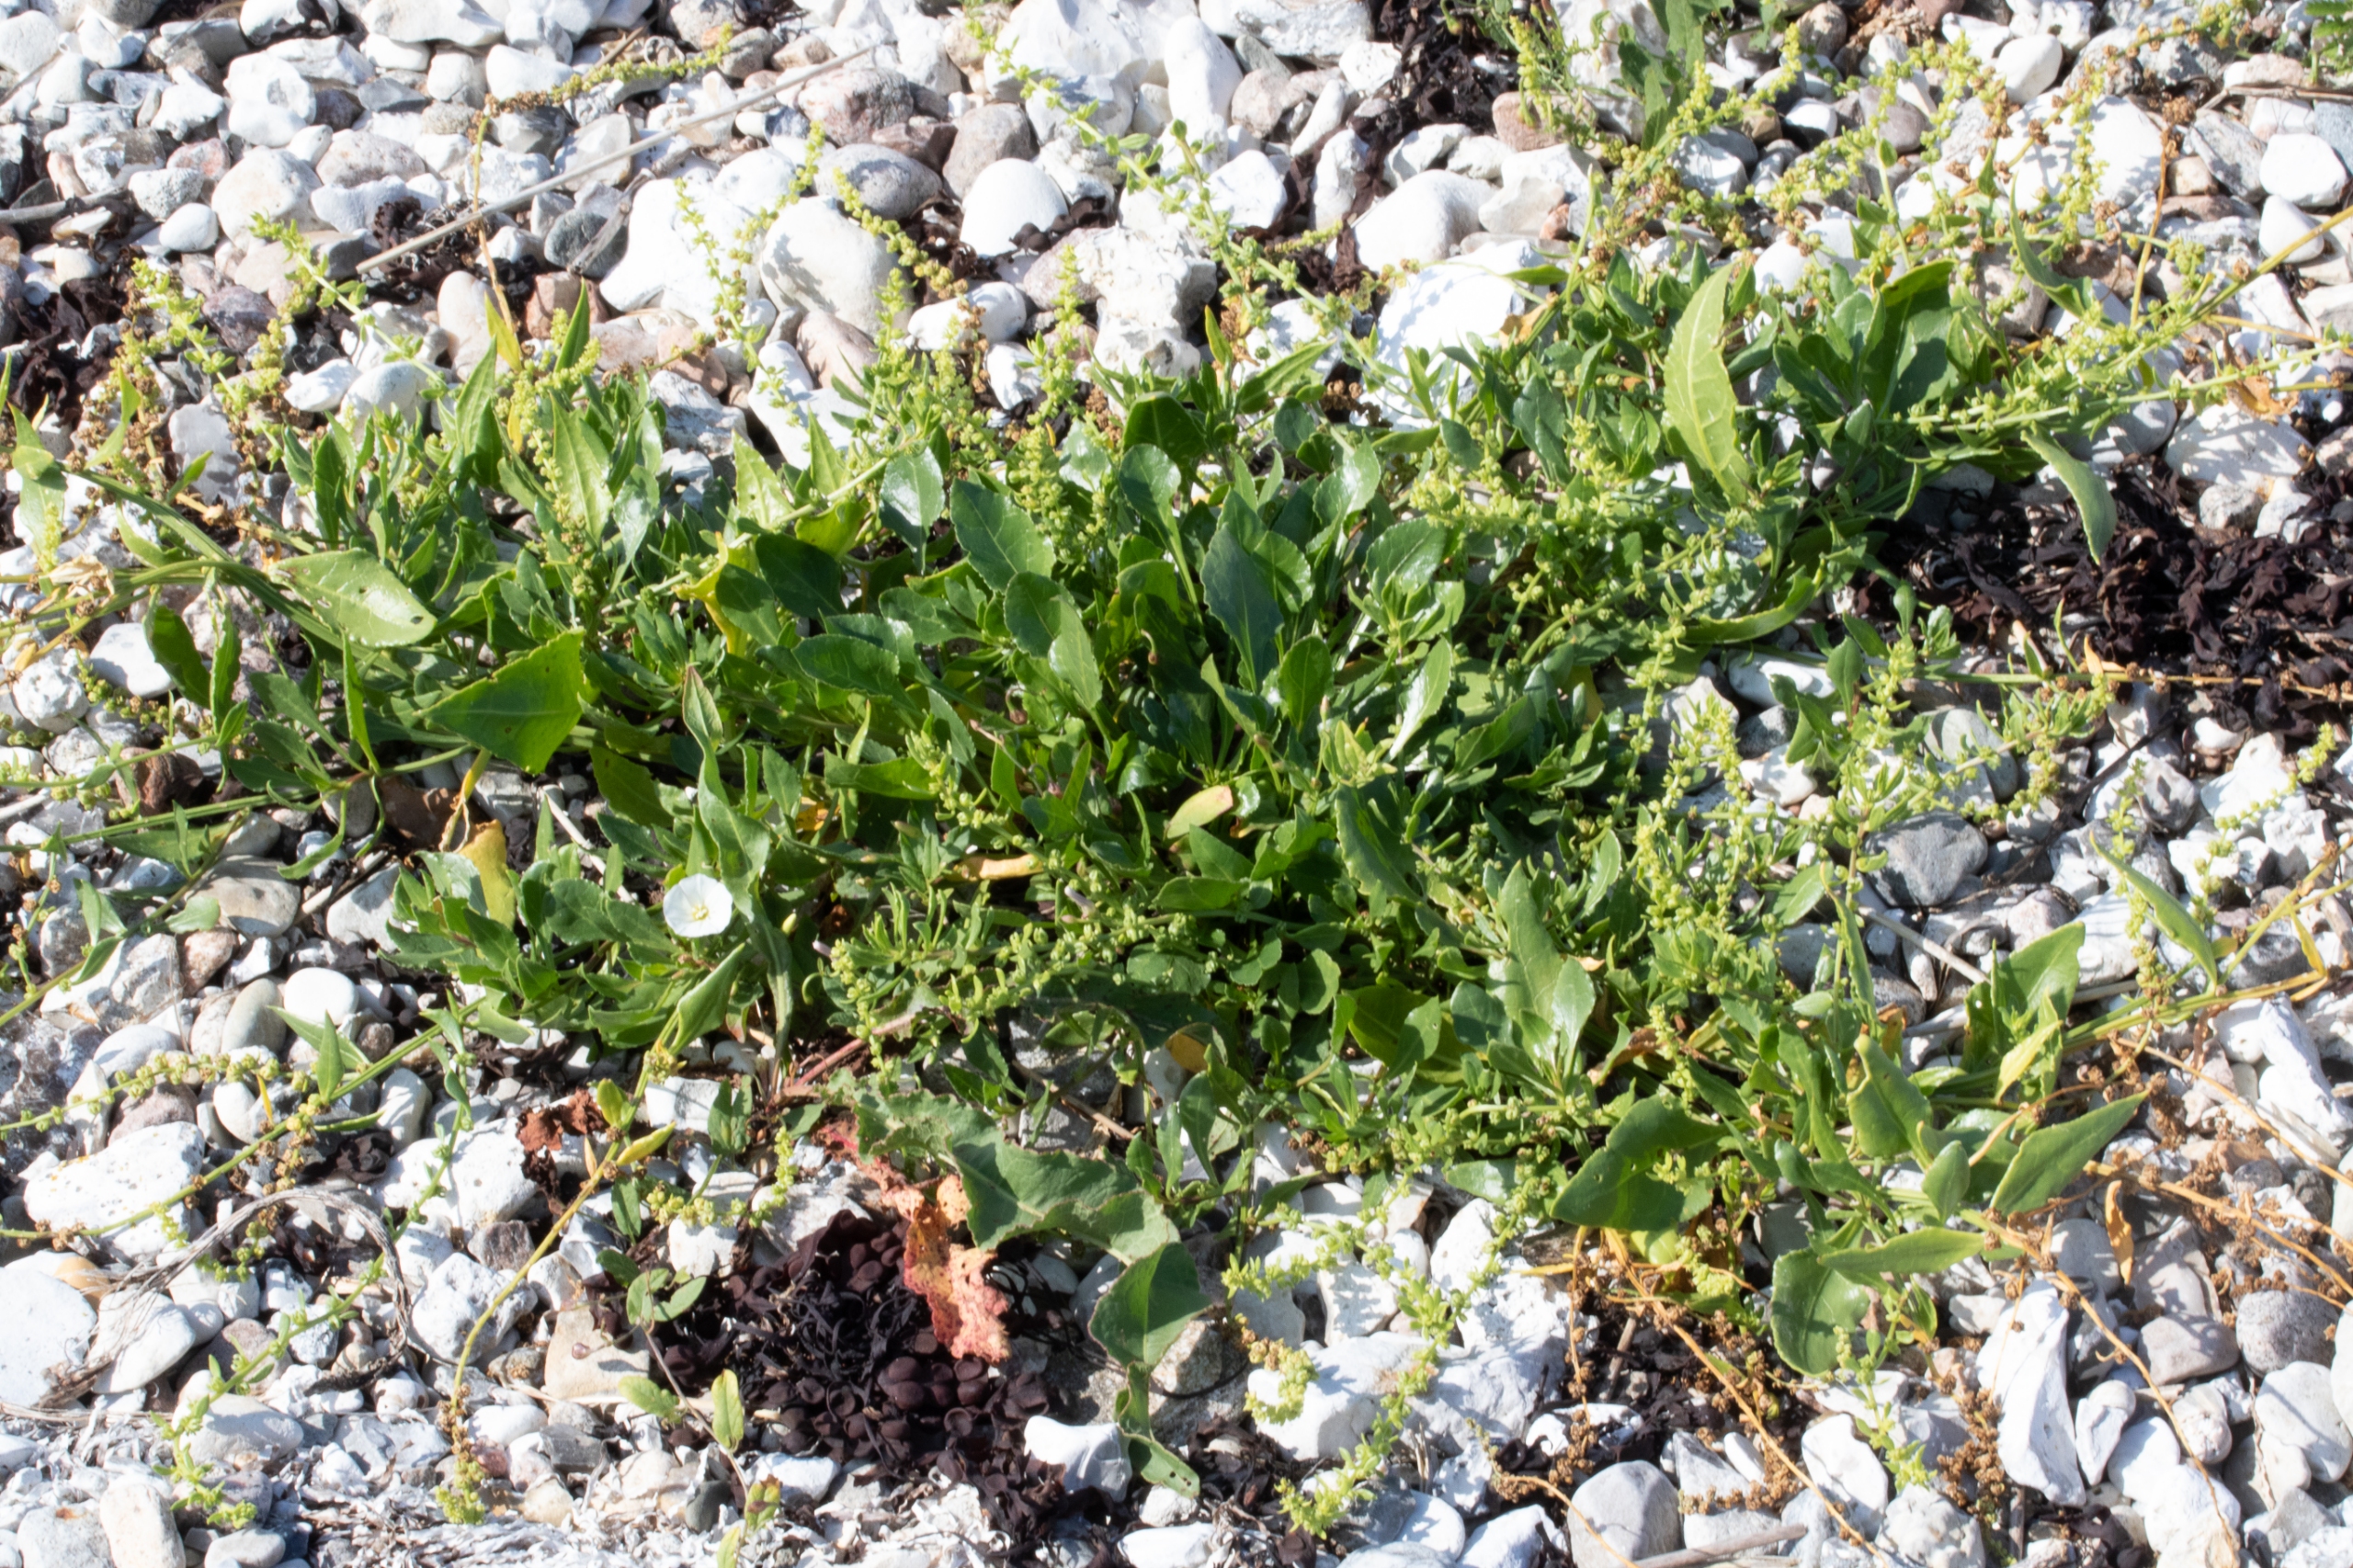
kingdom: Plantae
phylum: Tracheophyta
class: Magnoliopsida
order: Caryophyllales
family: Amaranthaceae
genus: Beta
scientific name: Beta maritima
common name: Strand-bede
